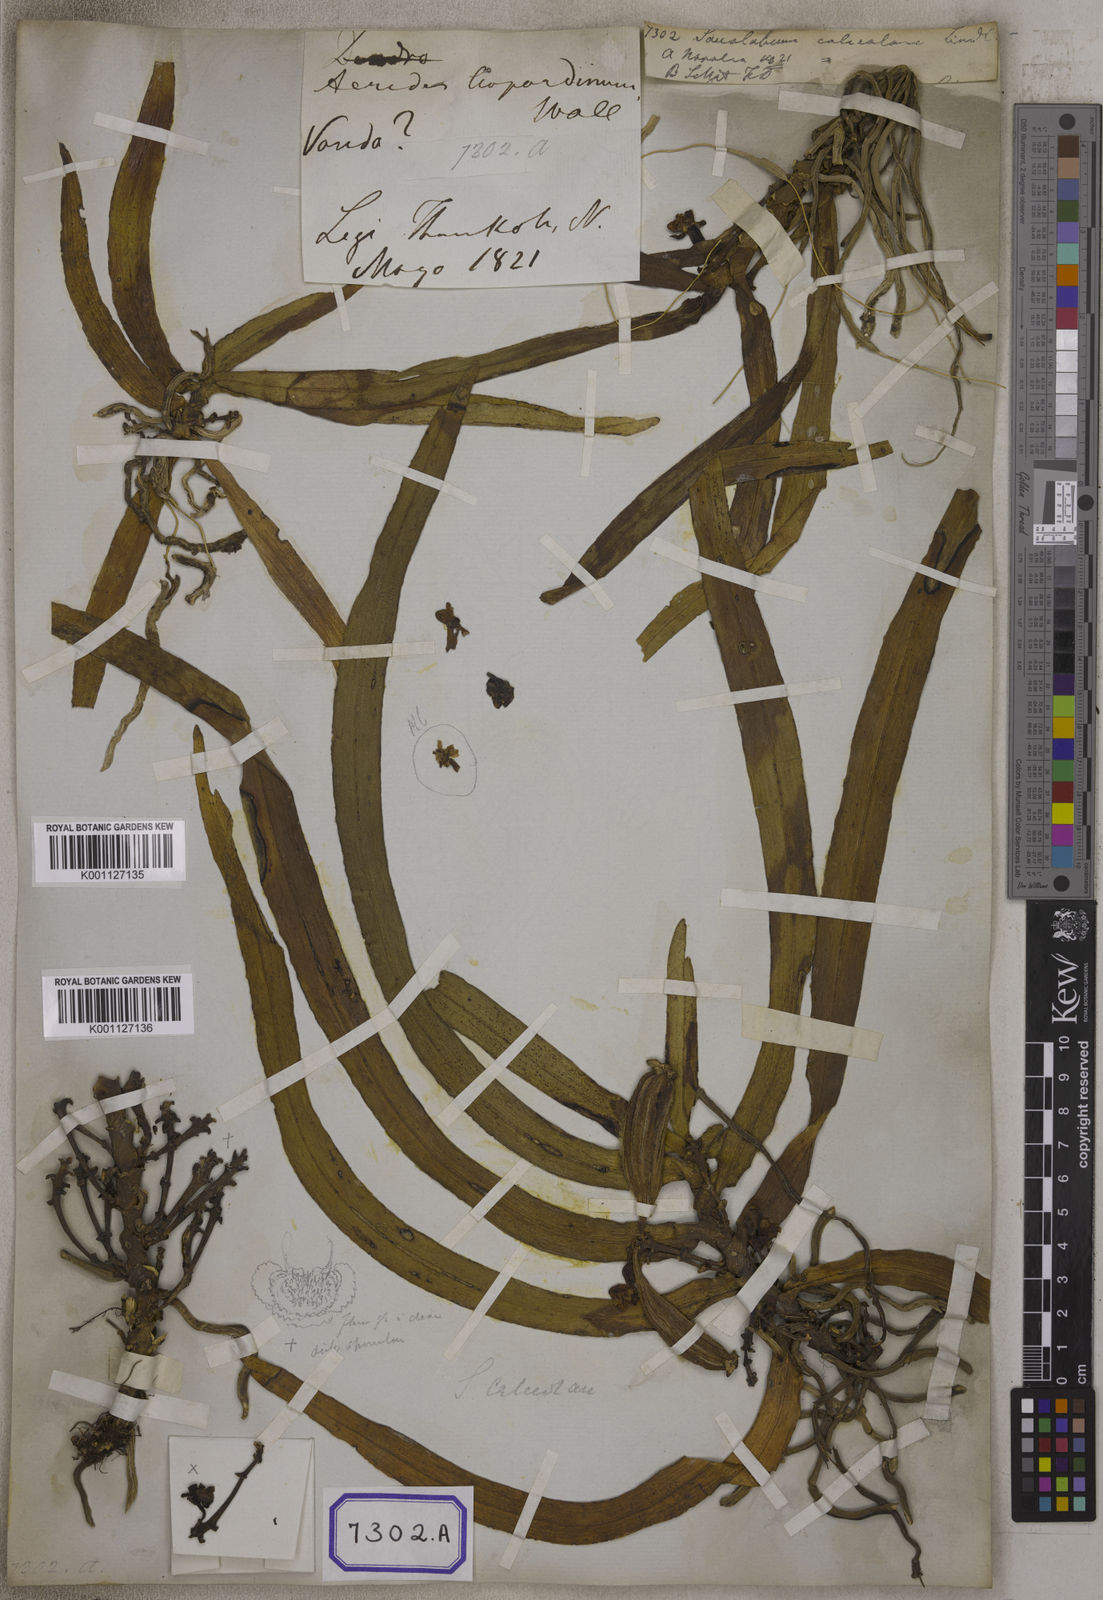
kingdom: Plantae
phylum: Tracheophyta
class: Liliopsida
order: Asparagales
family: Orchidaceae
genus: Gastrochilus
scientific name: Gastrochilus calceolaris
